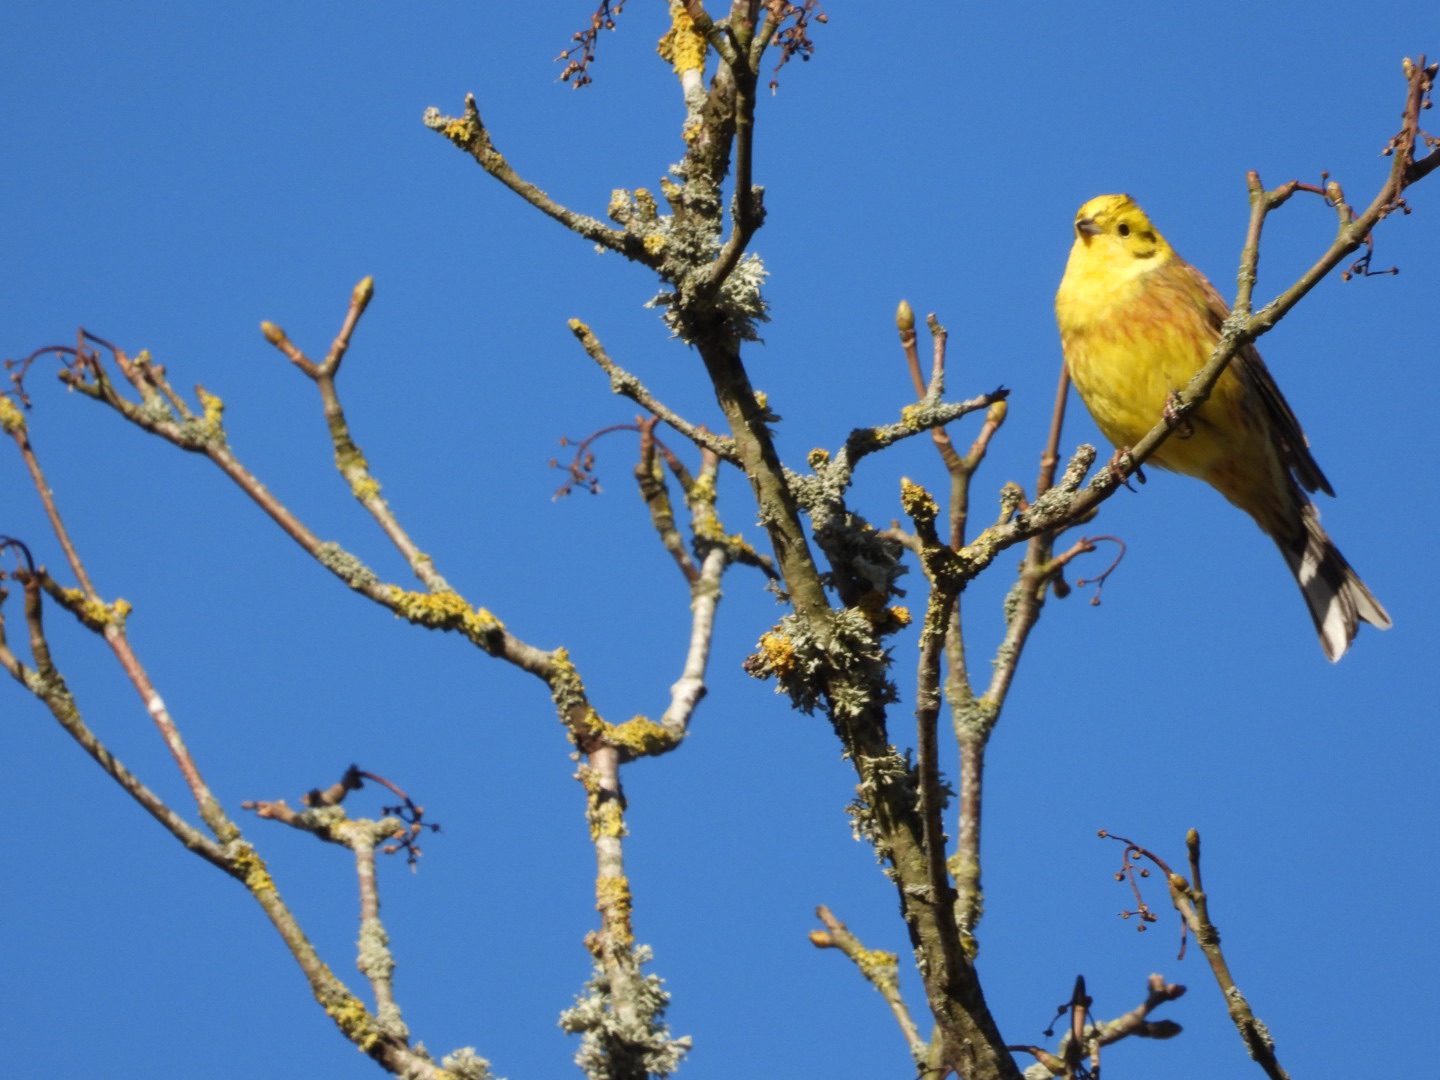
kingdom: Animalia
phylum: Chordata
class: Aves
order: Passeriformes
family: Emberizidae
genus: Emberiza
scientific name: Emberiza citrinella
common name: Gulspurv
